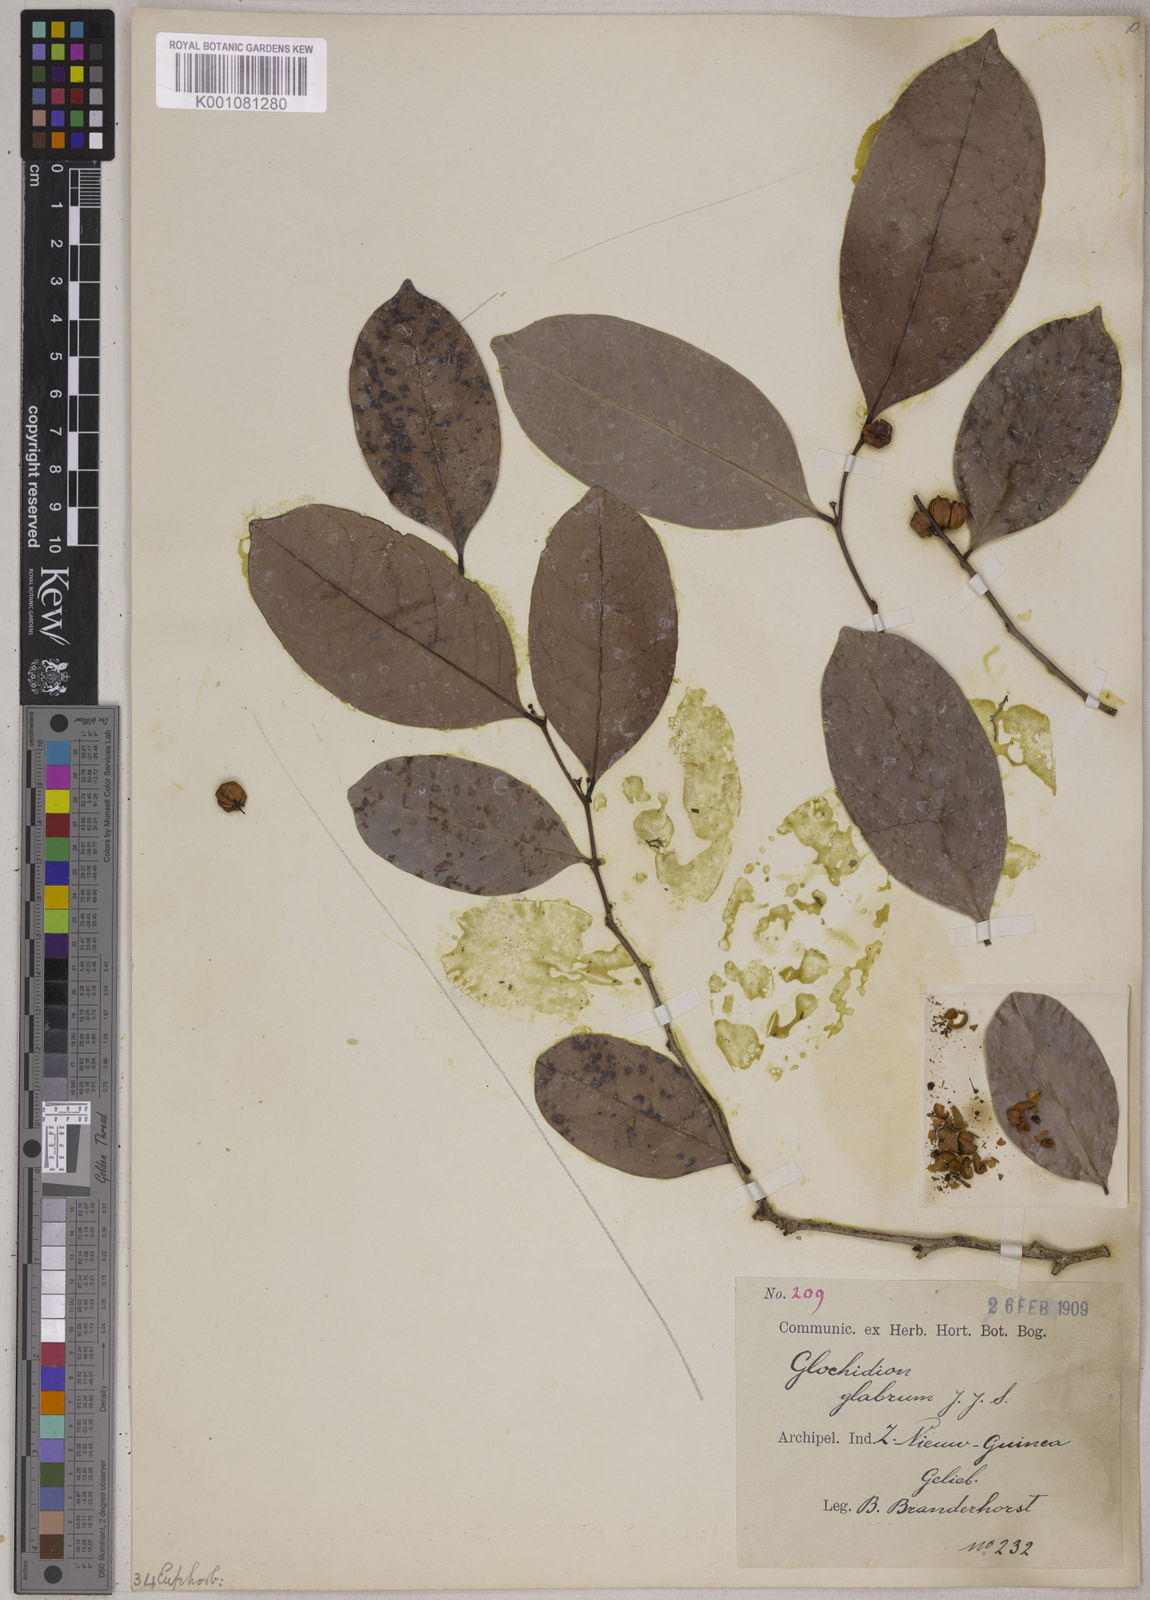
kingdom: Plantae
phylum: Tracheophyta
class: Magnoliopsida
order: Malpighiales
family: Phyllanthaceae
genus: Glochidion
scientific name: Glochidion glabrum
